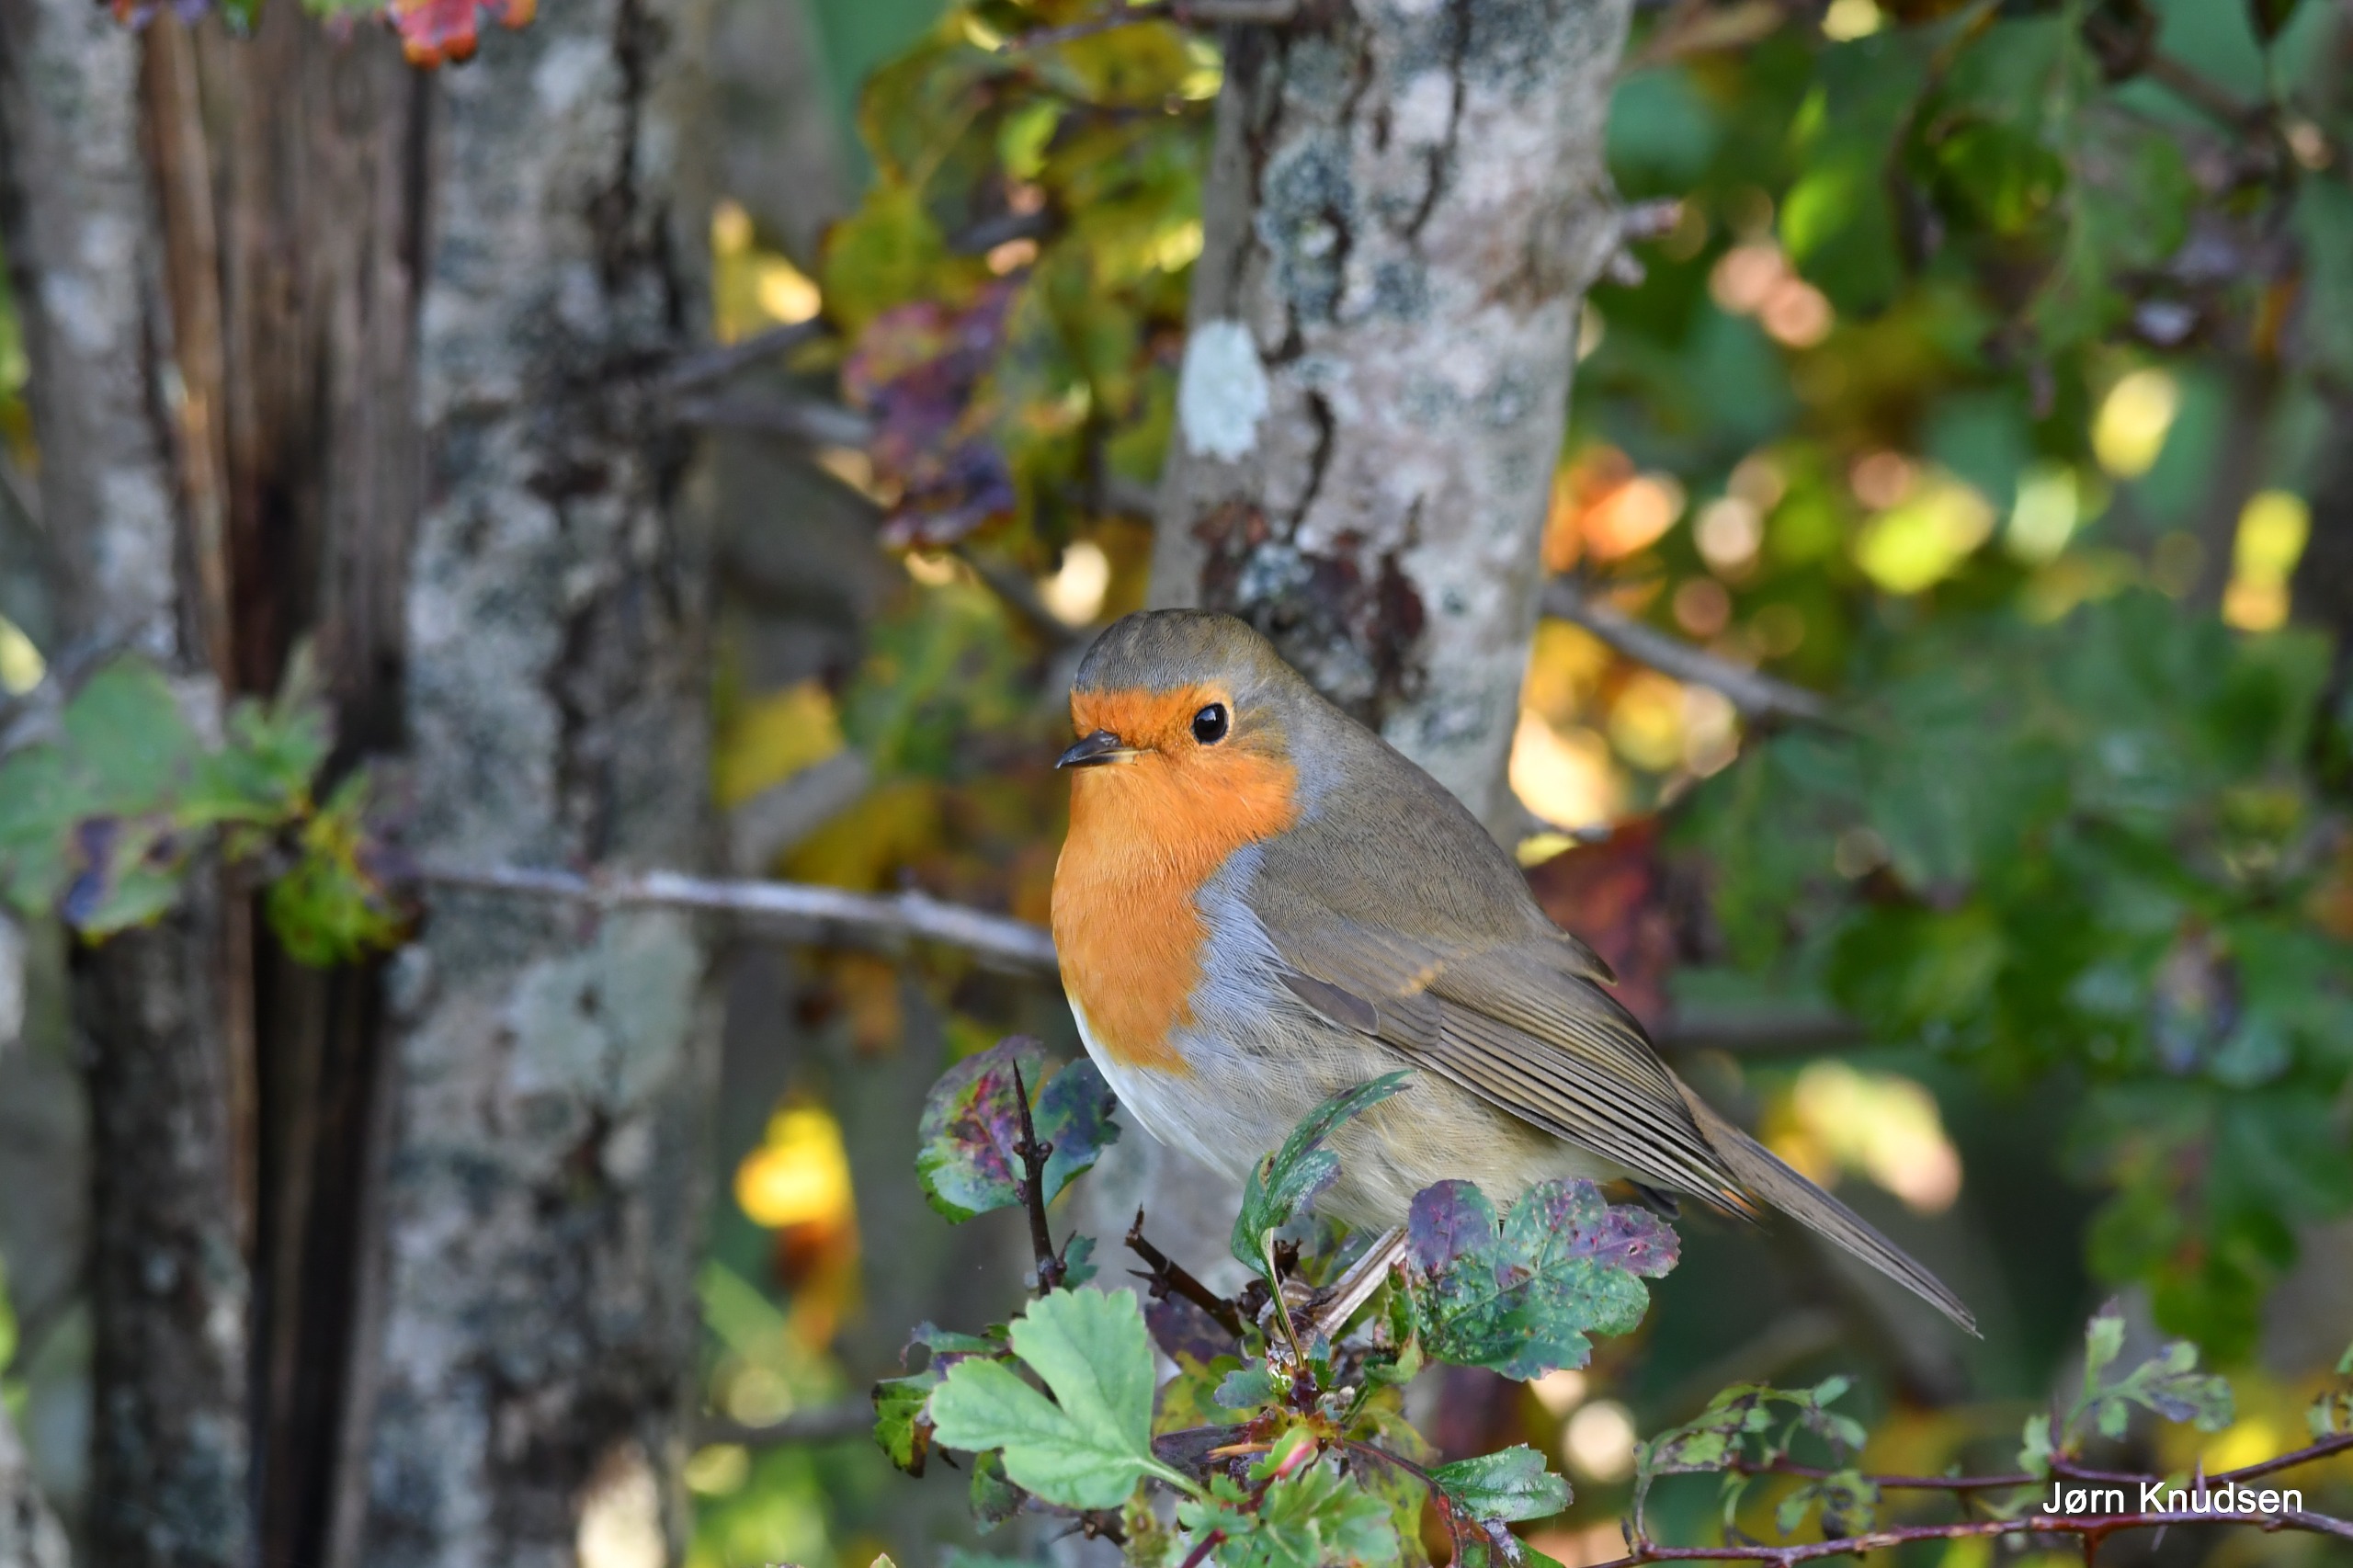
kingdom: Animalia
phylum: Chordata
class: Aves
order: Passeriformes
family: Muscicapidae
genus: Erithacus
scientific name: Erithacus rubecula
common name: Rødhals/rødkælk
